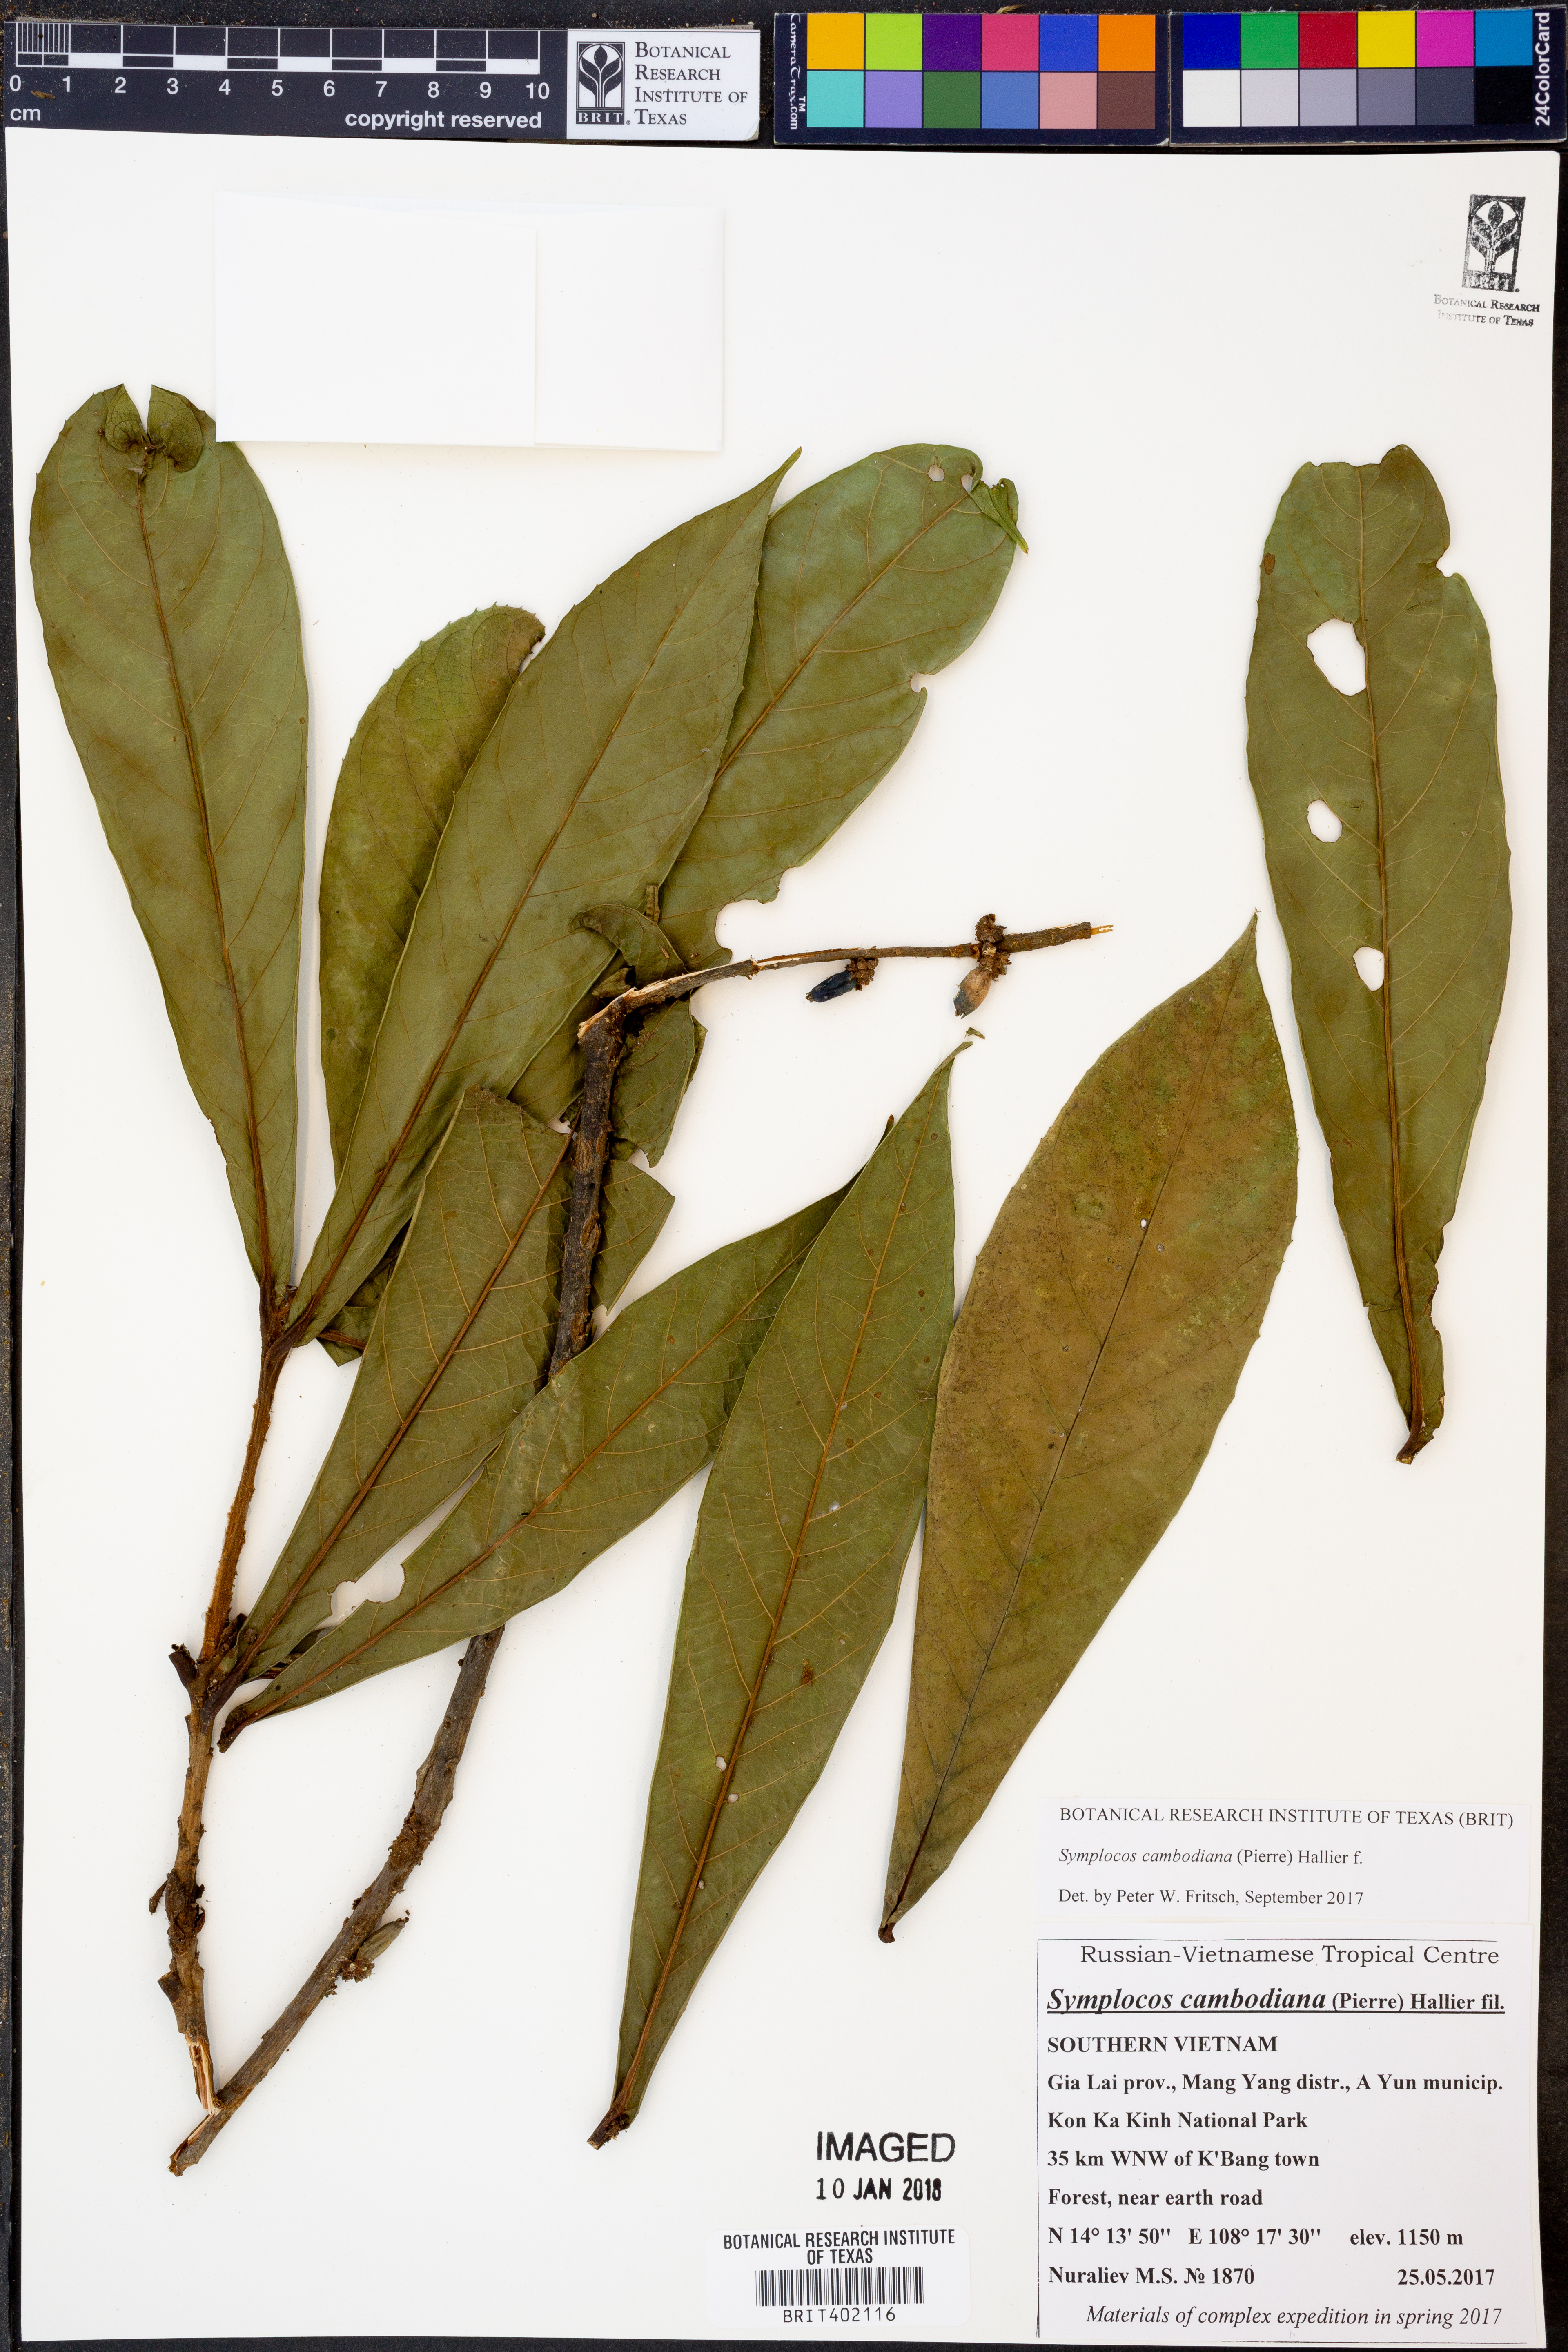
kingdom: Plantae
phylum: Tracheophyta
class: Magnoliopsida
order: Ericales
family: Symplocaceae
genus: Symplocos
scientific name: Symplocos cambodiana
